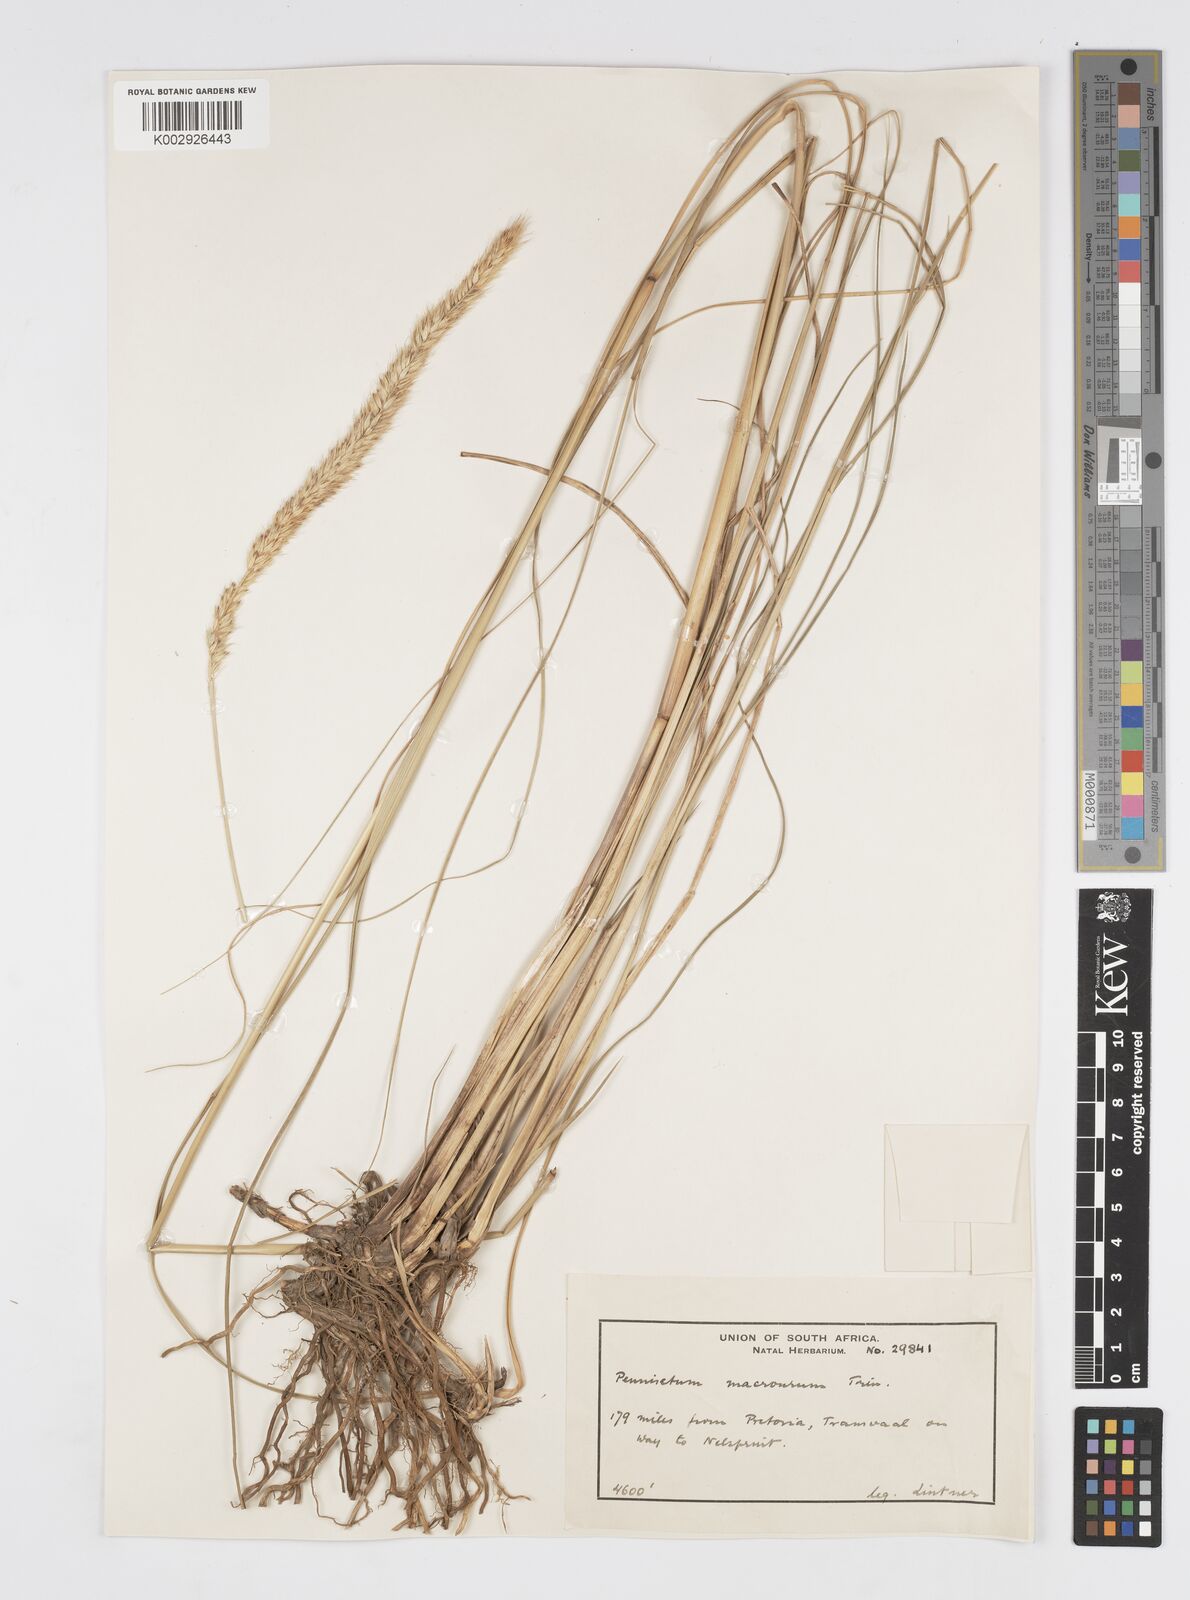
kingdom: Plantae
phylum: Tracheophyta
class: Liliopsida
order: Poales
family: Poaceae
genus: Cenchrus
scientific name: Cenchrus caudatus
